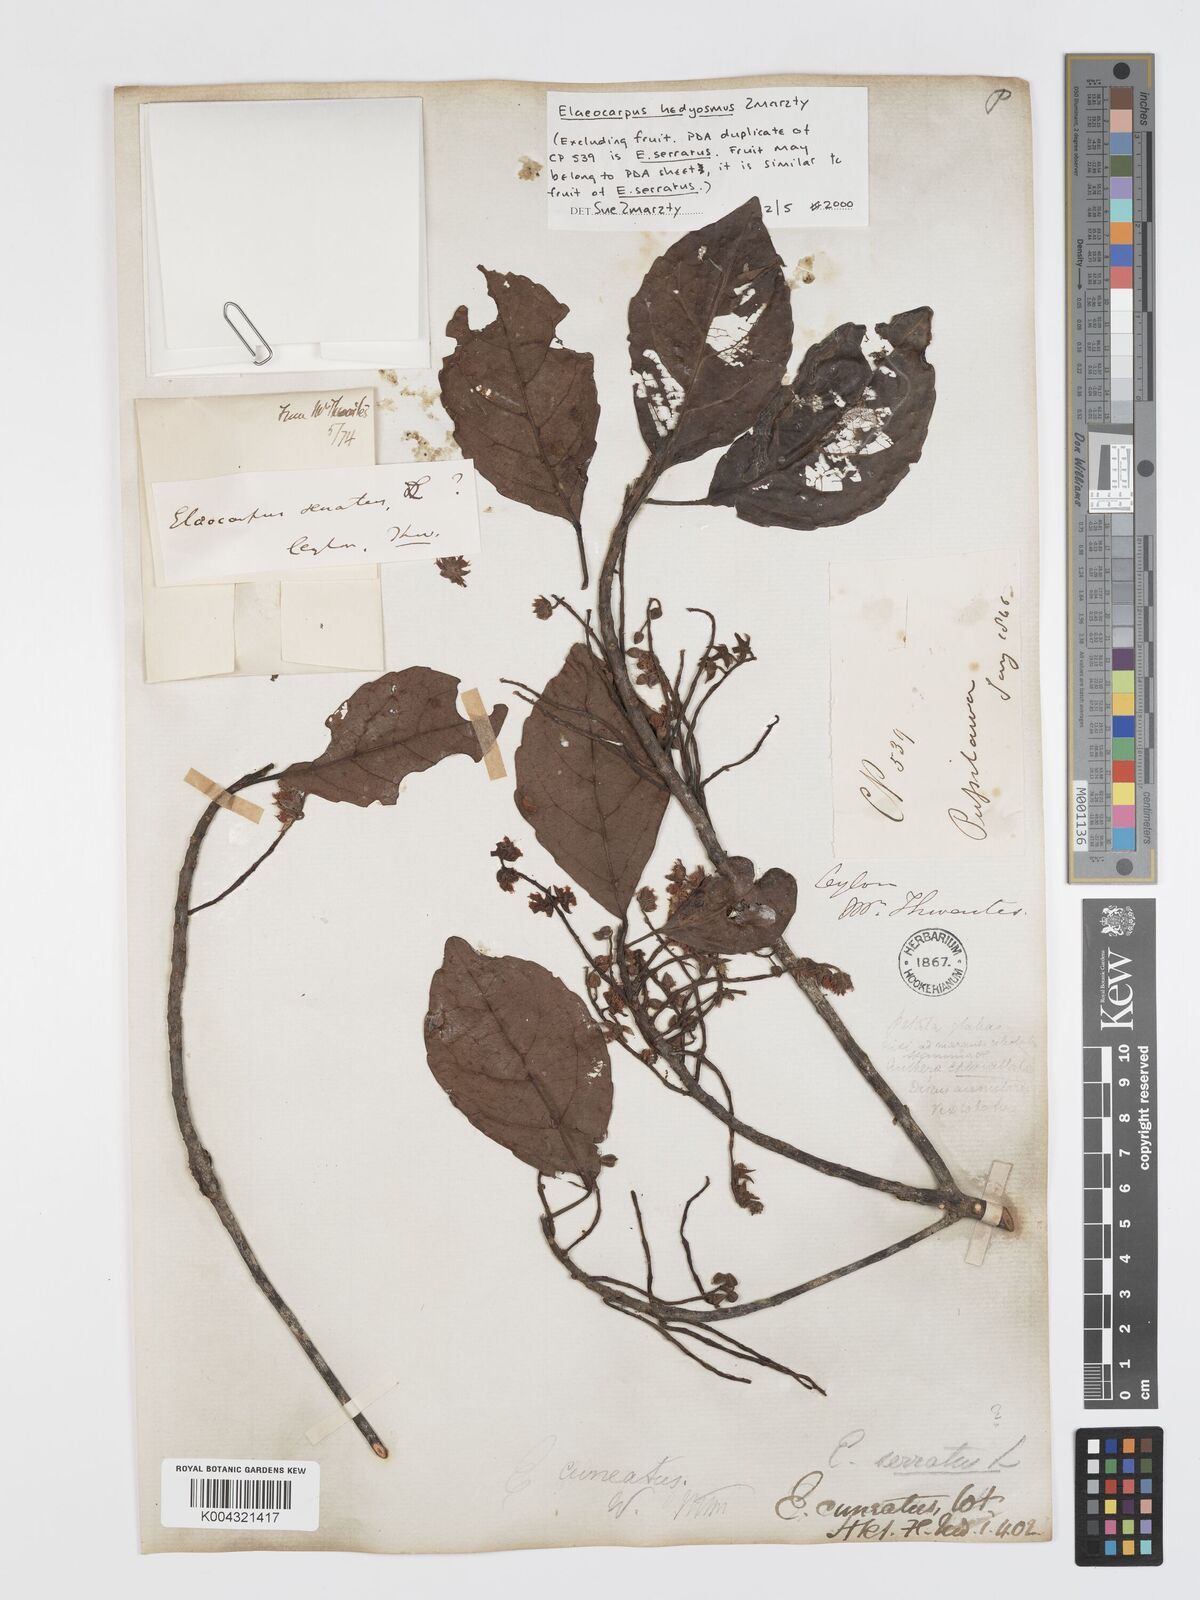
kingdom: Plantae
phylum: Tracheophyta
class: Magnoliopsida
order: Oxalidales
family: Elaeocarpaceae
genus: Elaeocarpus
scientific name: Elaeocarpus hedyosmus
